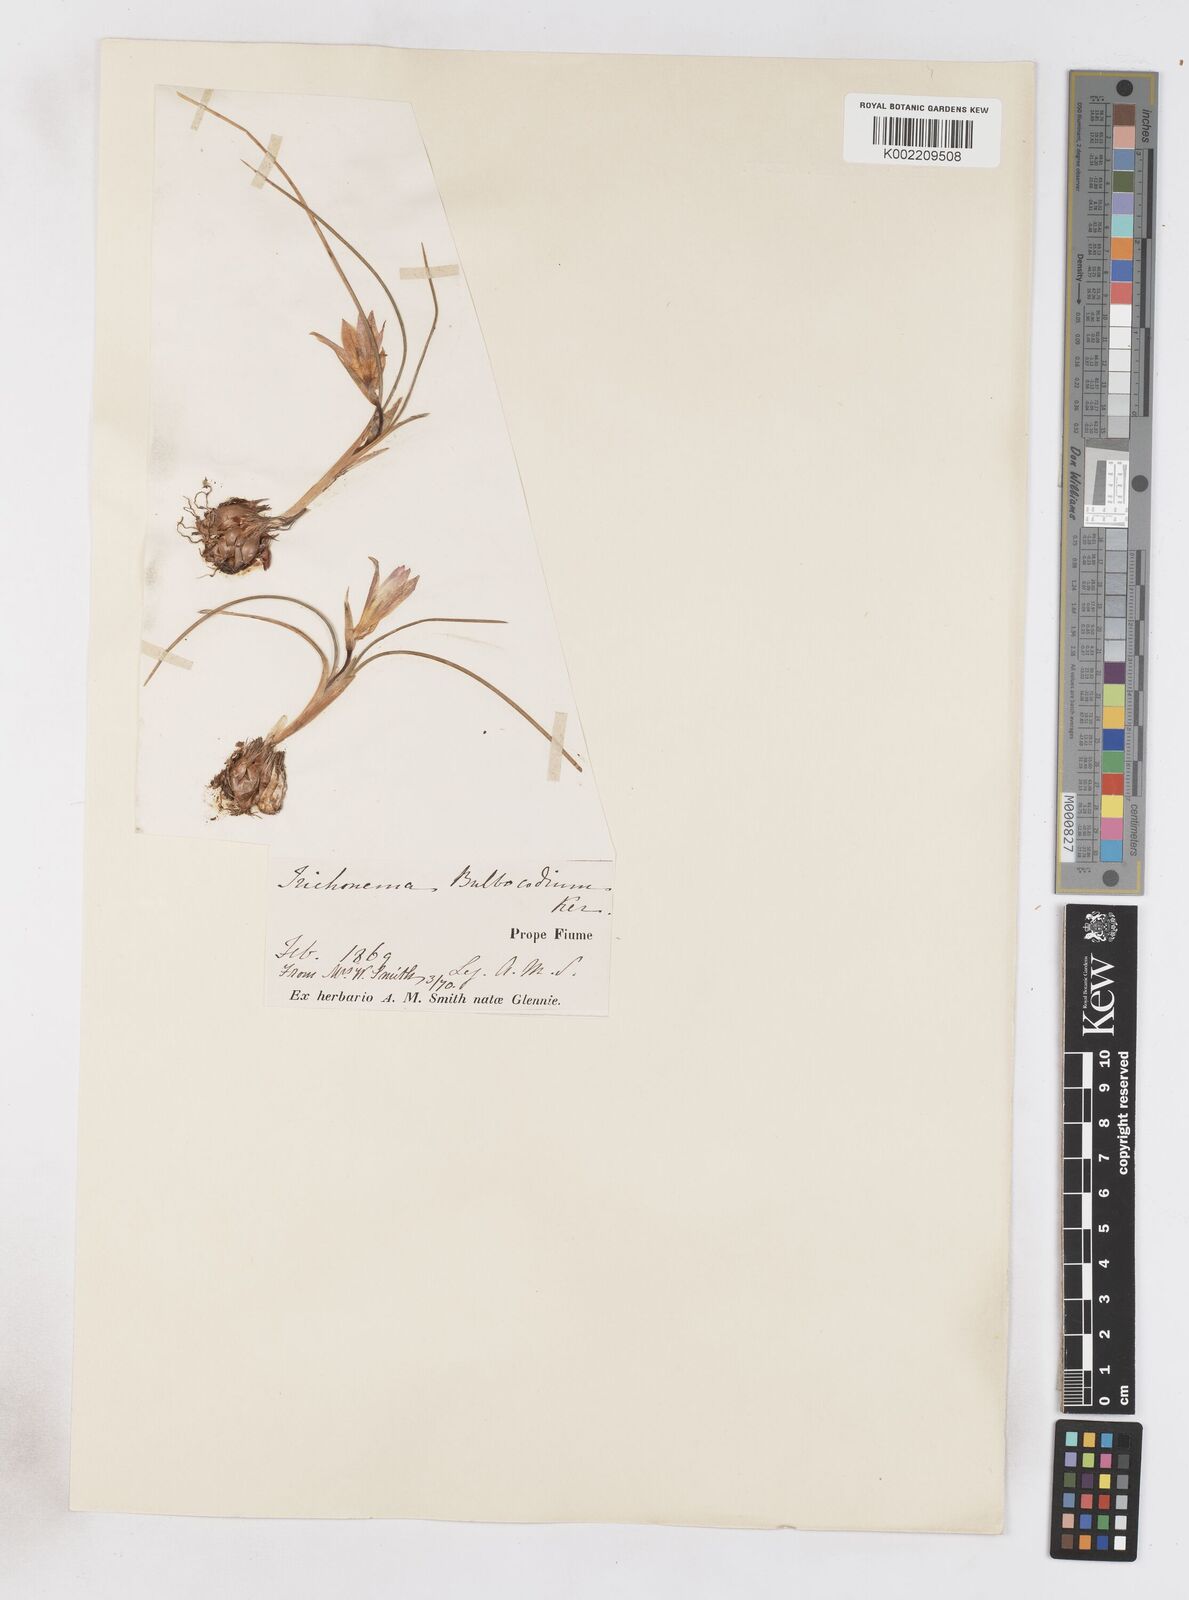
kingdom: Plantae
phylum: Tracheophyta
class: Liliopsida
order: Asparagales
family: Iridaceae
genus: Romulea
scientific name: Romulea bulbocodium
